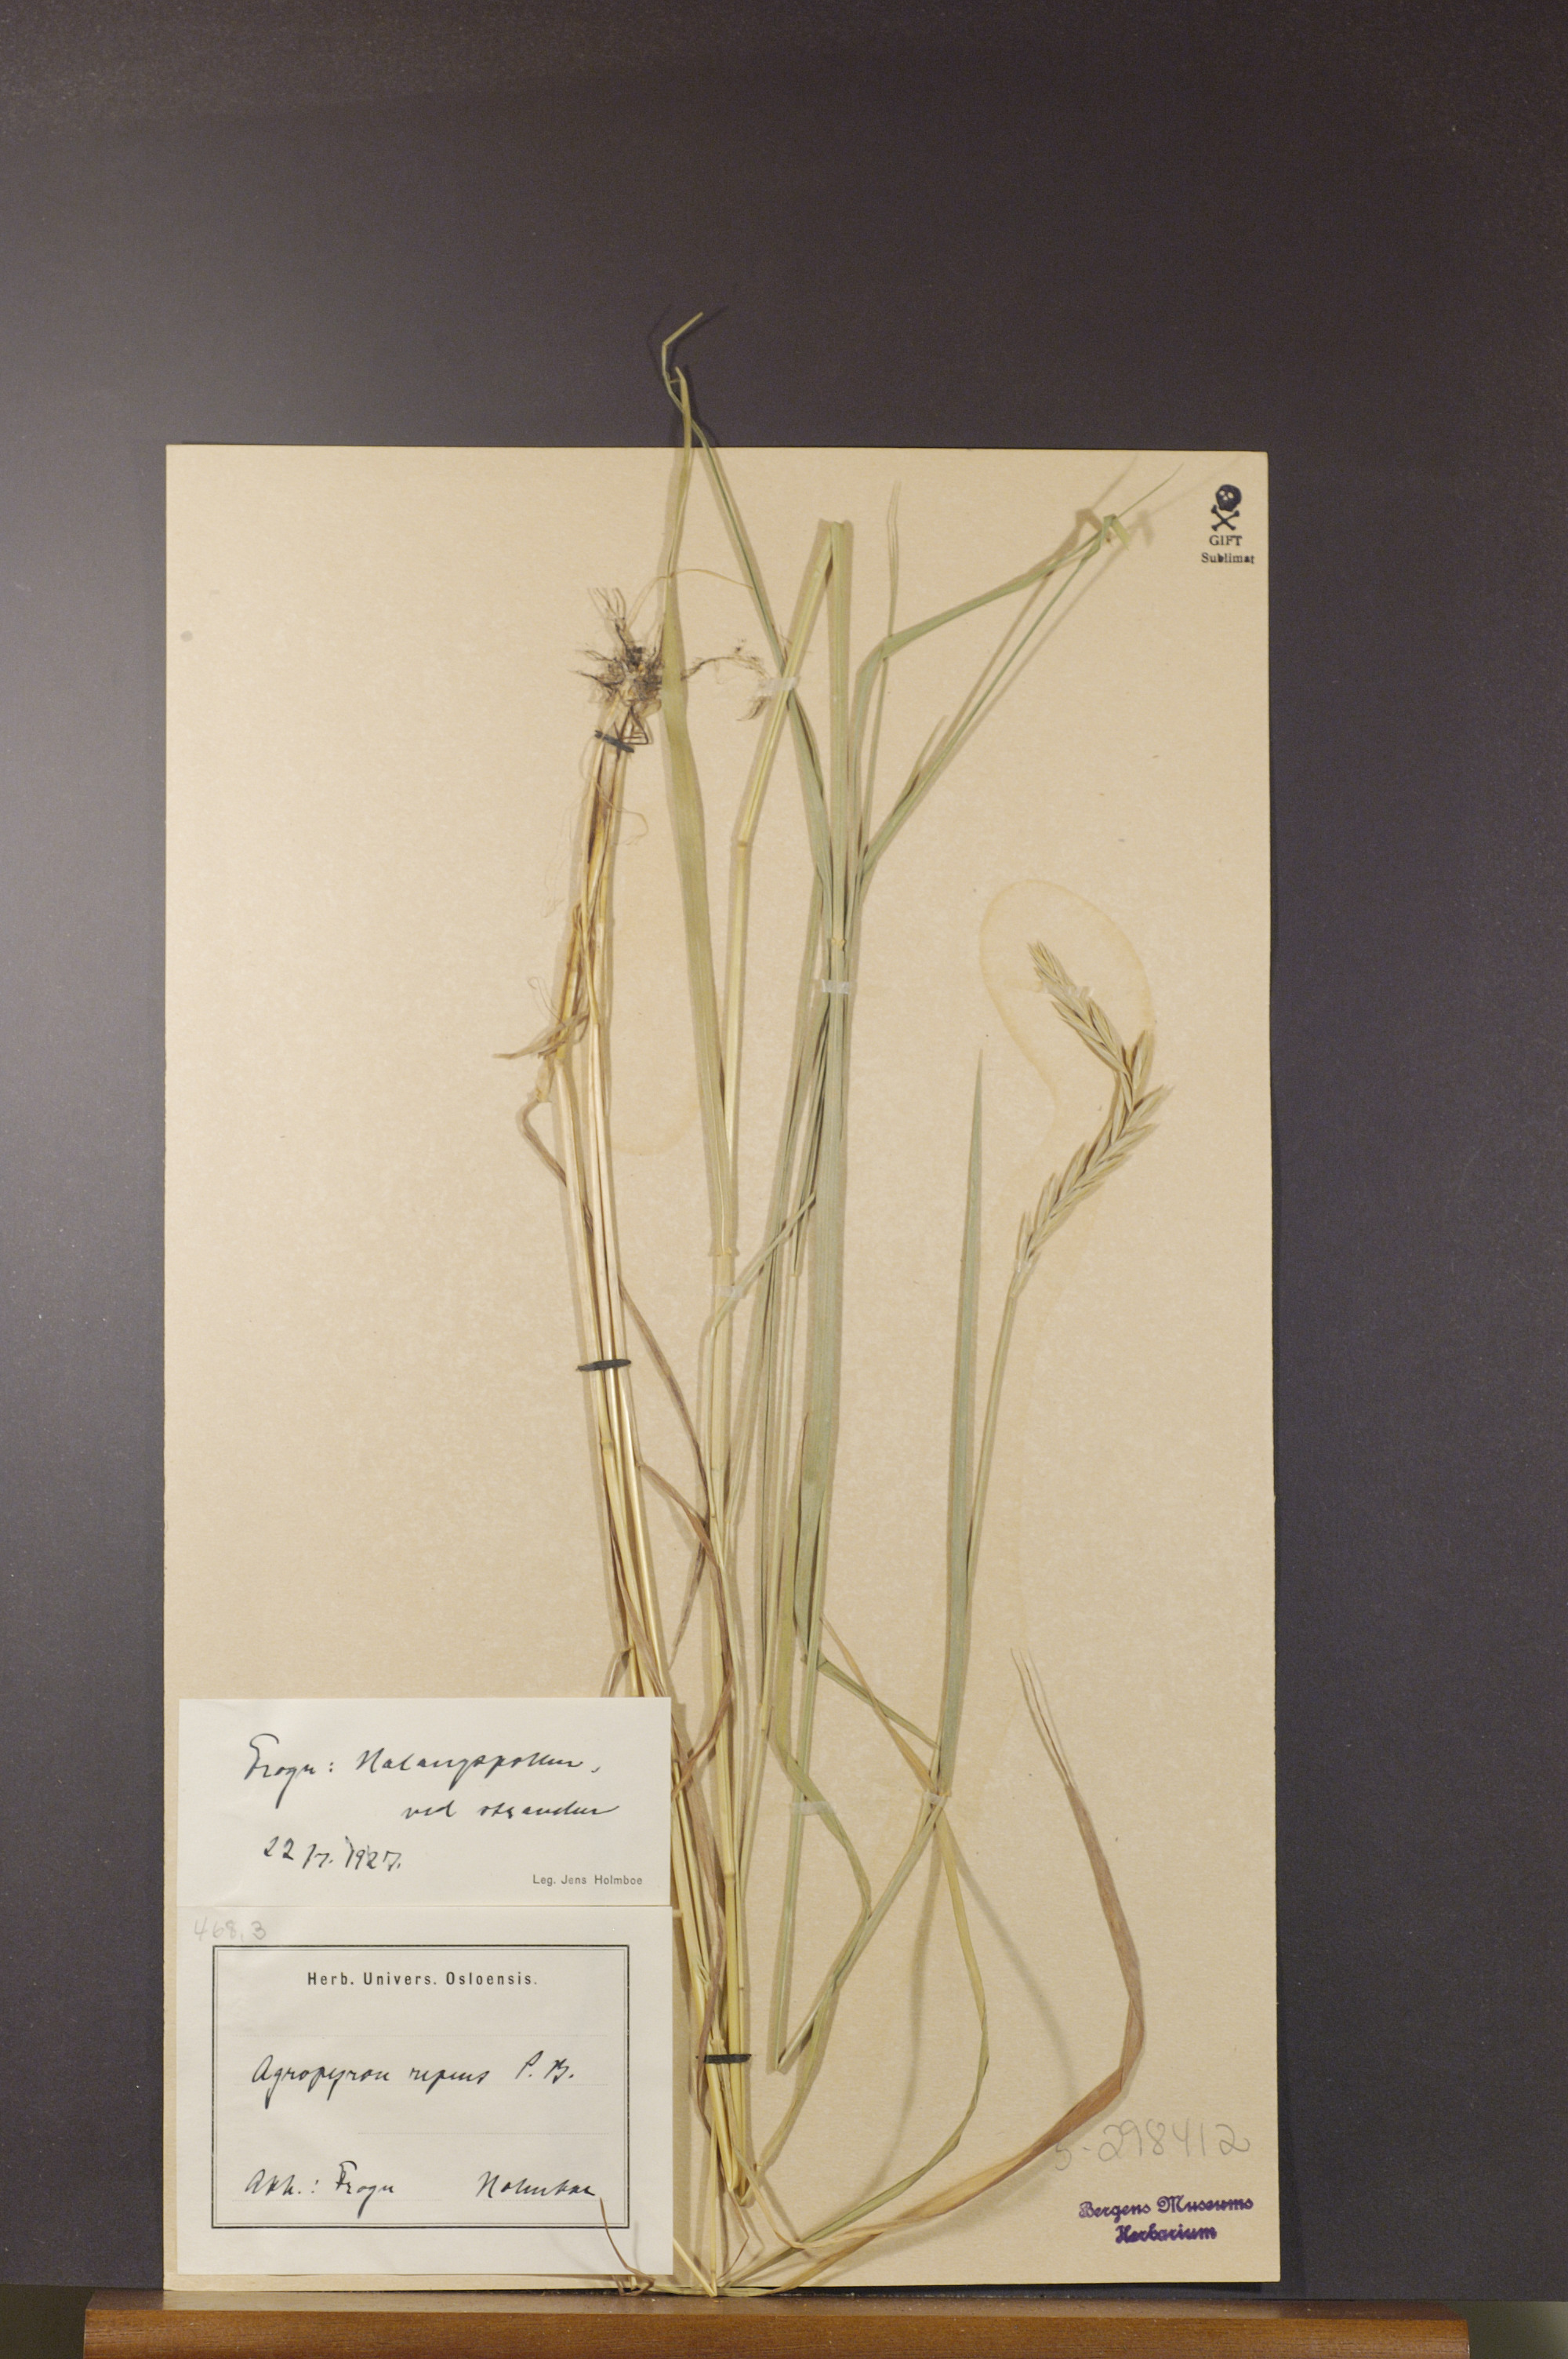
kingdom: Plantae
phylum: Tracheophyta
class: Liliopsida
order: Poales
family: Poaceae
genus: Elymus
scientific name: Elymus repens
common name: Quackgrass
